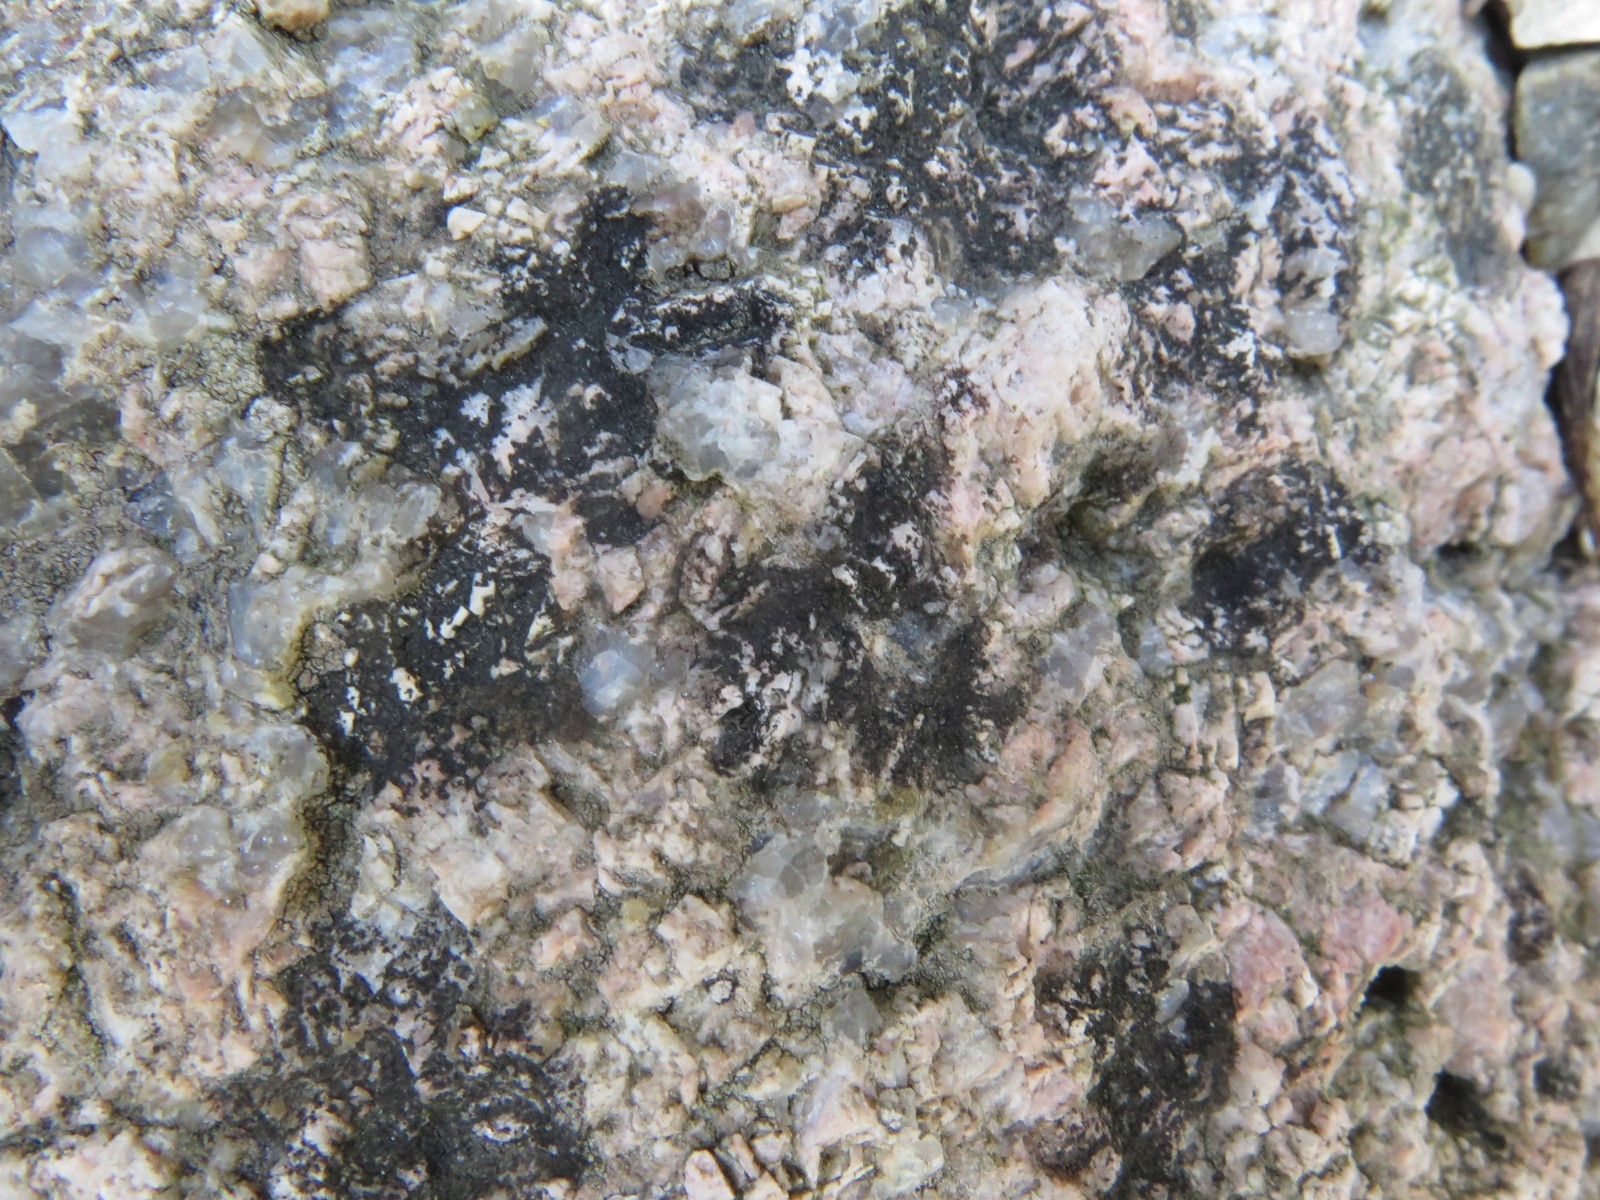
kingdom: Fungi
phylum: Ascomycota
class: Lecanoromycetes
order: Acarosporales
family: Acarosporaceae
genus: Acarospora
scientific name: Acarospora privigna
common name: sort foldekantlav
